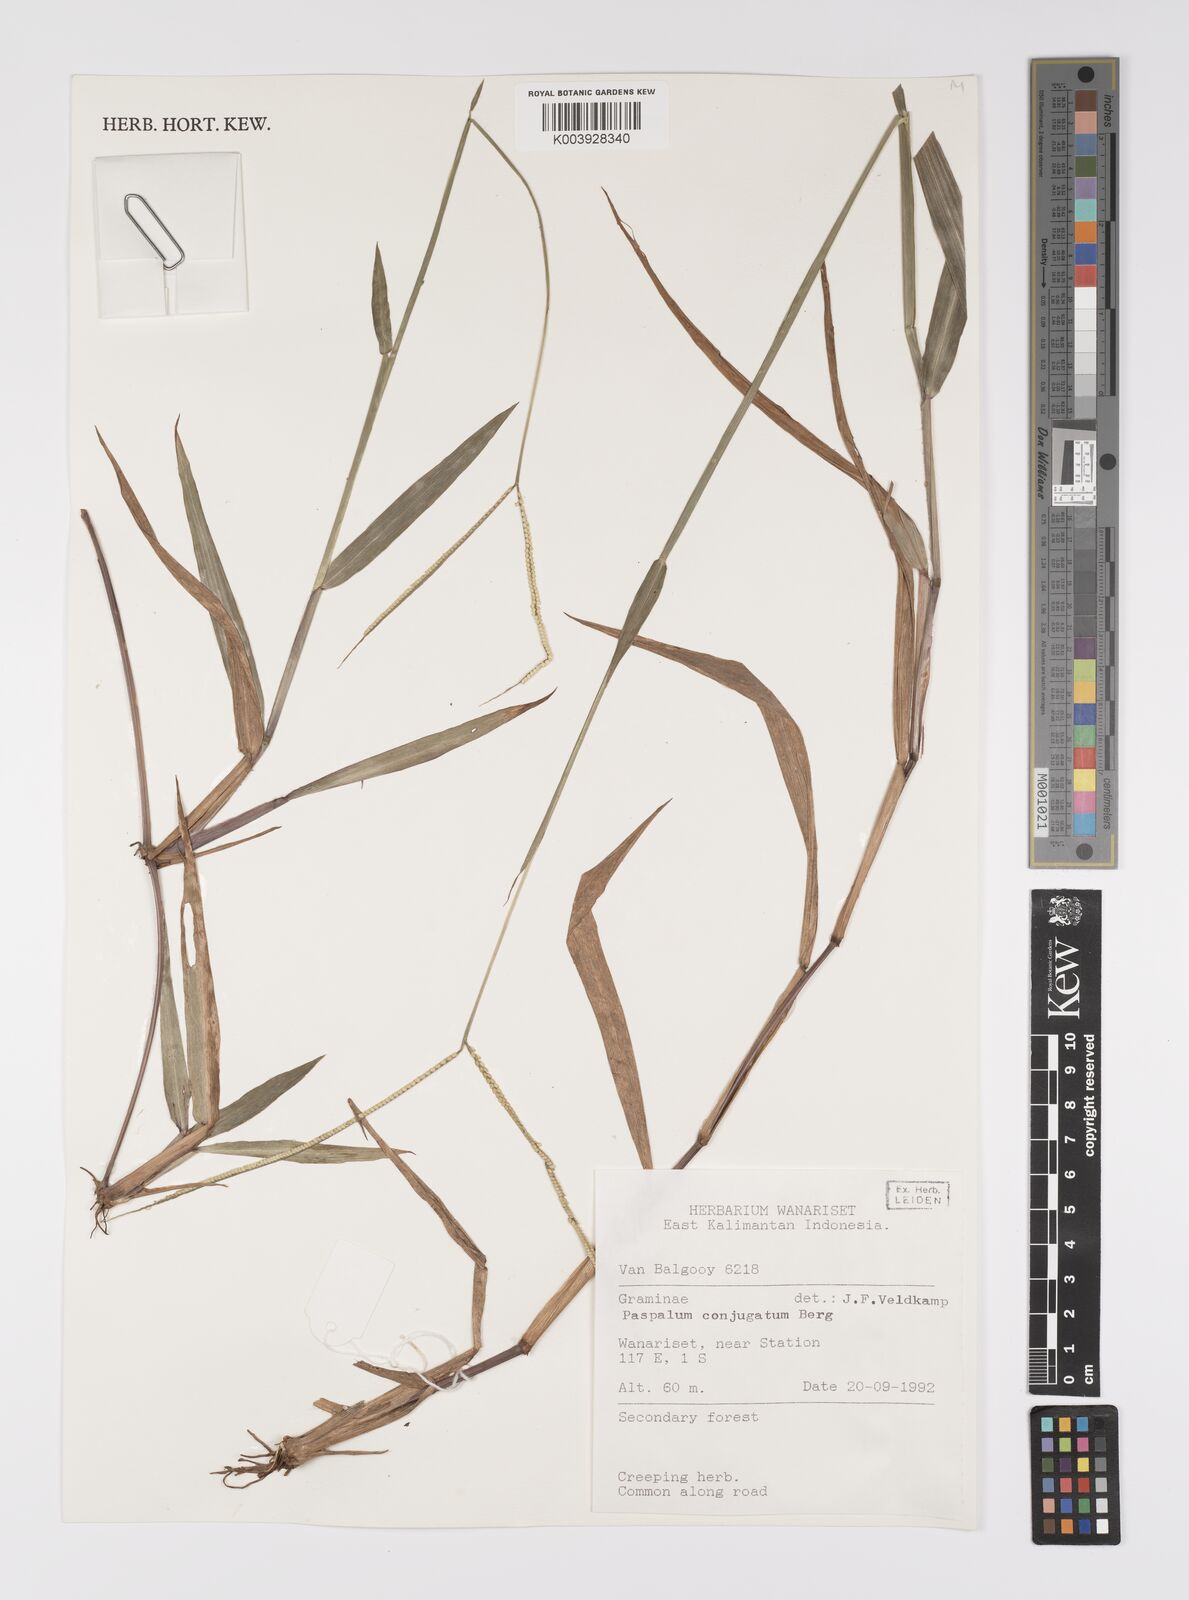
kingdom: Plantae
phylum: Tracheophyta
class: Liliopsida
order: Poales
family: Poaceae
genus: Paspalum
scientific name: Paspalum conjugatum
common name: Hilograss
